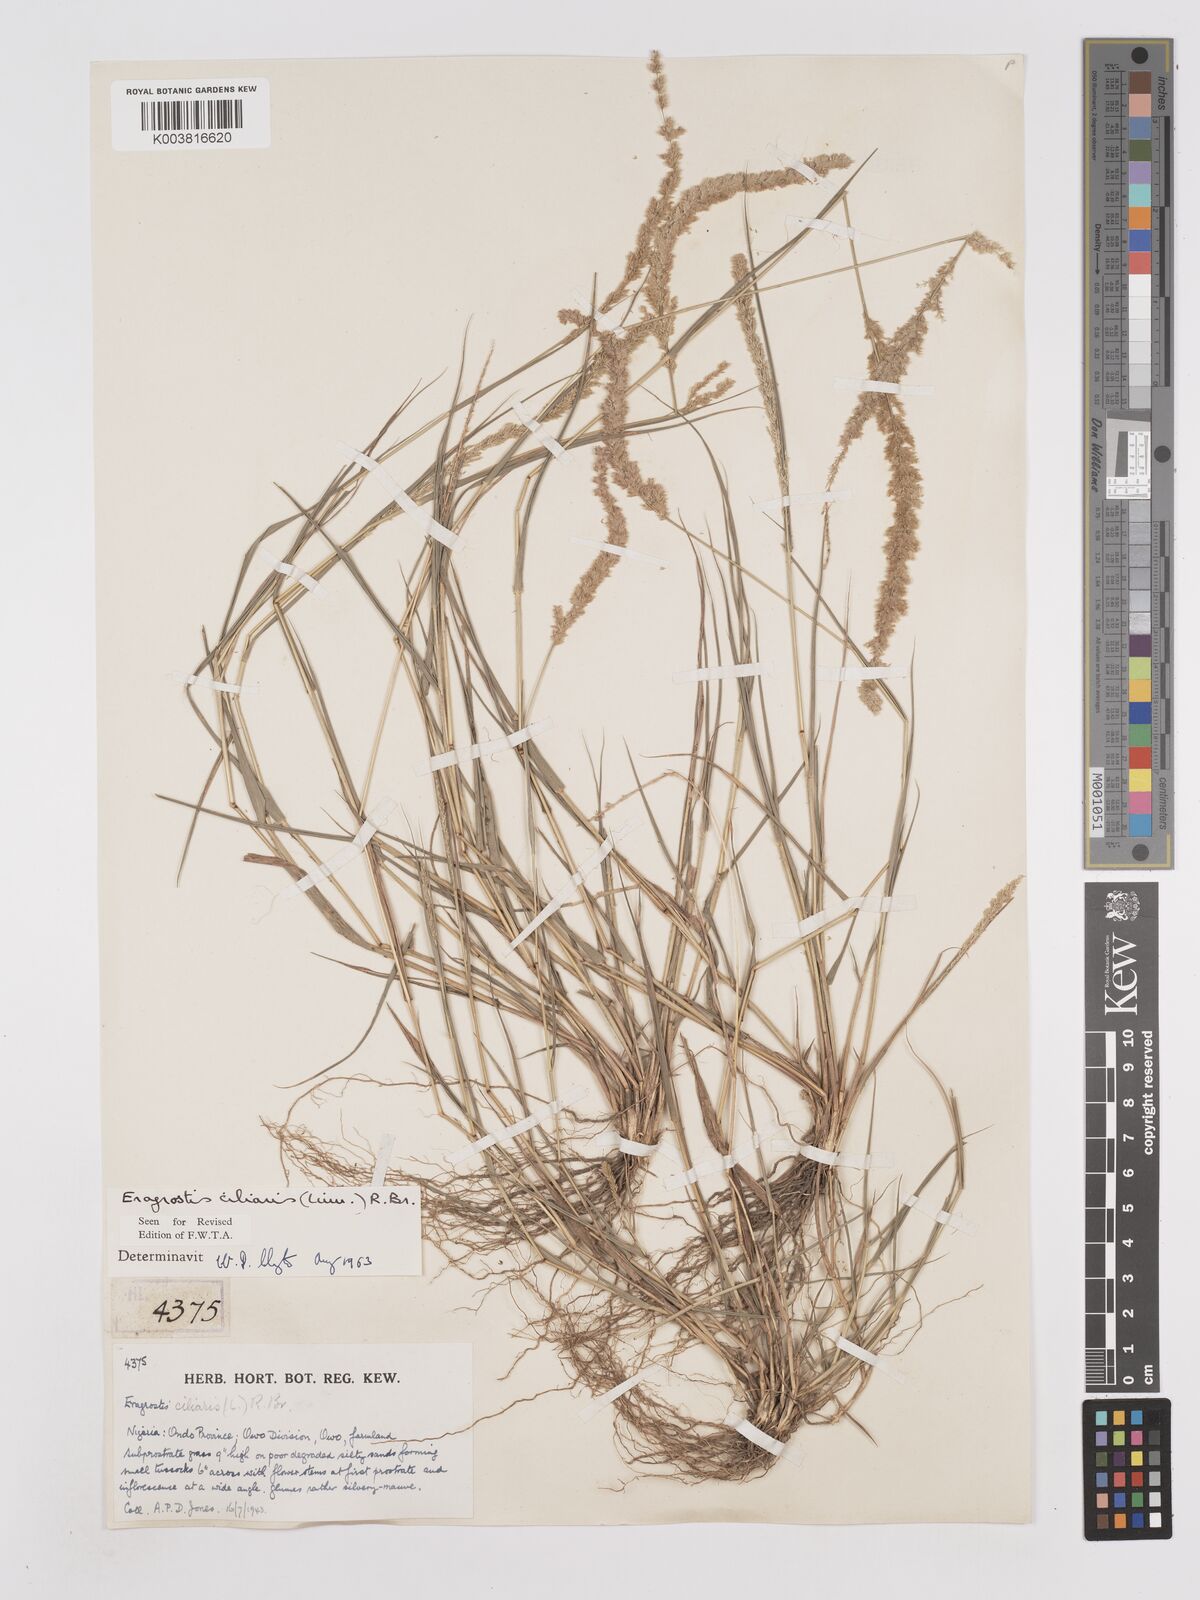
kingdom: Plantae
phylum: Tracheophyta
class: Liliopsida
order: Poales
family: Poaceae
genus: Eragrostis
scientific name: Eragrostis ciliaris
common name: Gophertail lovegrass
